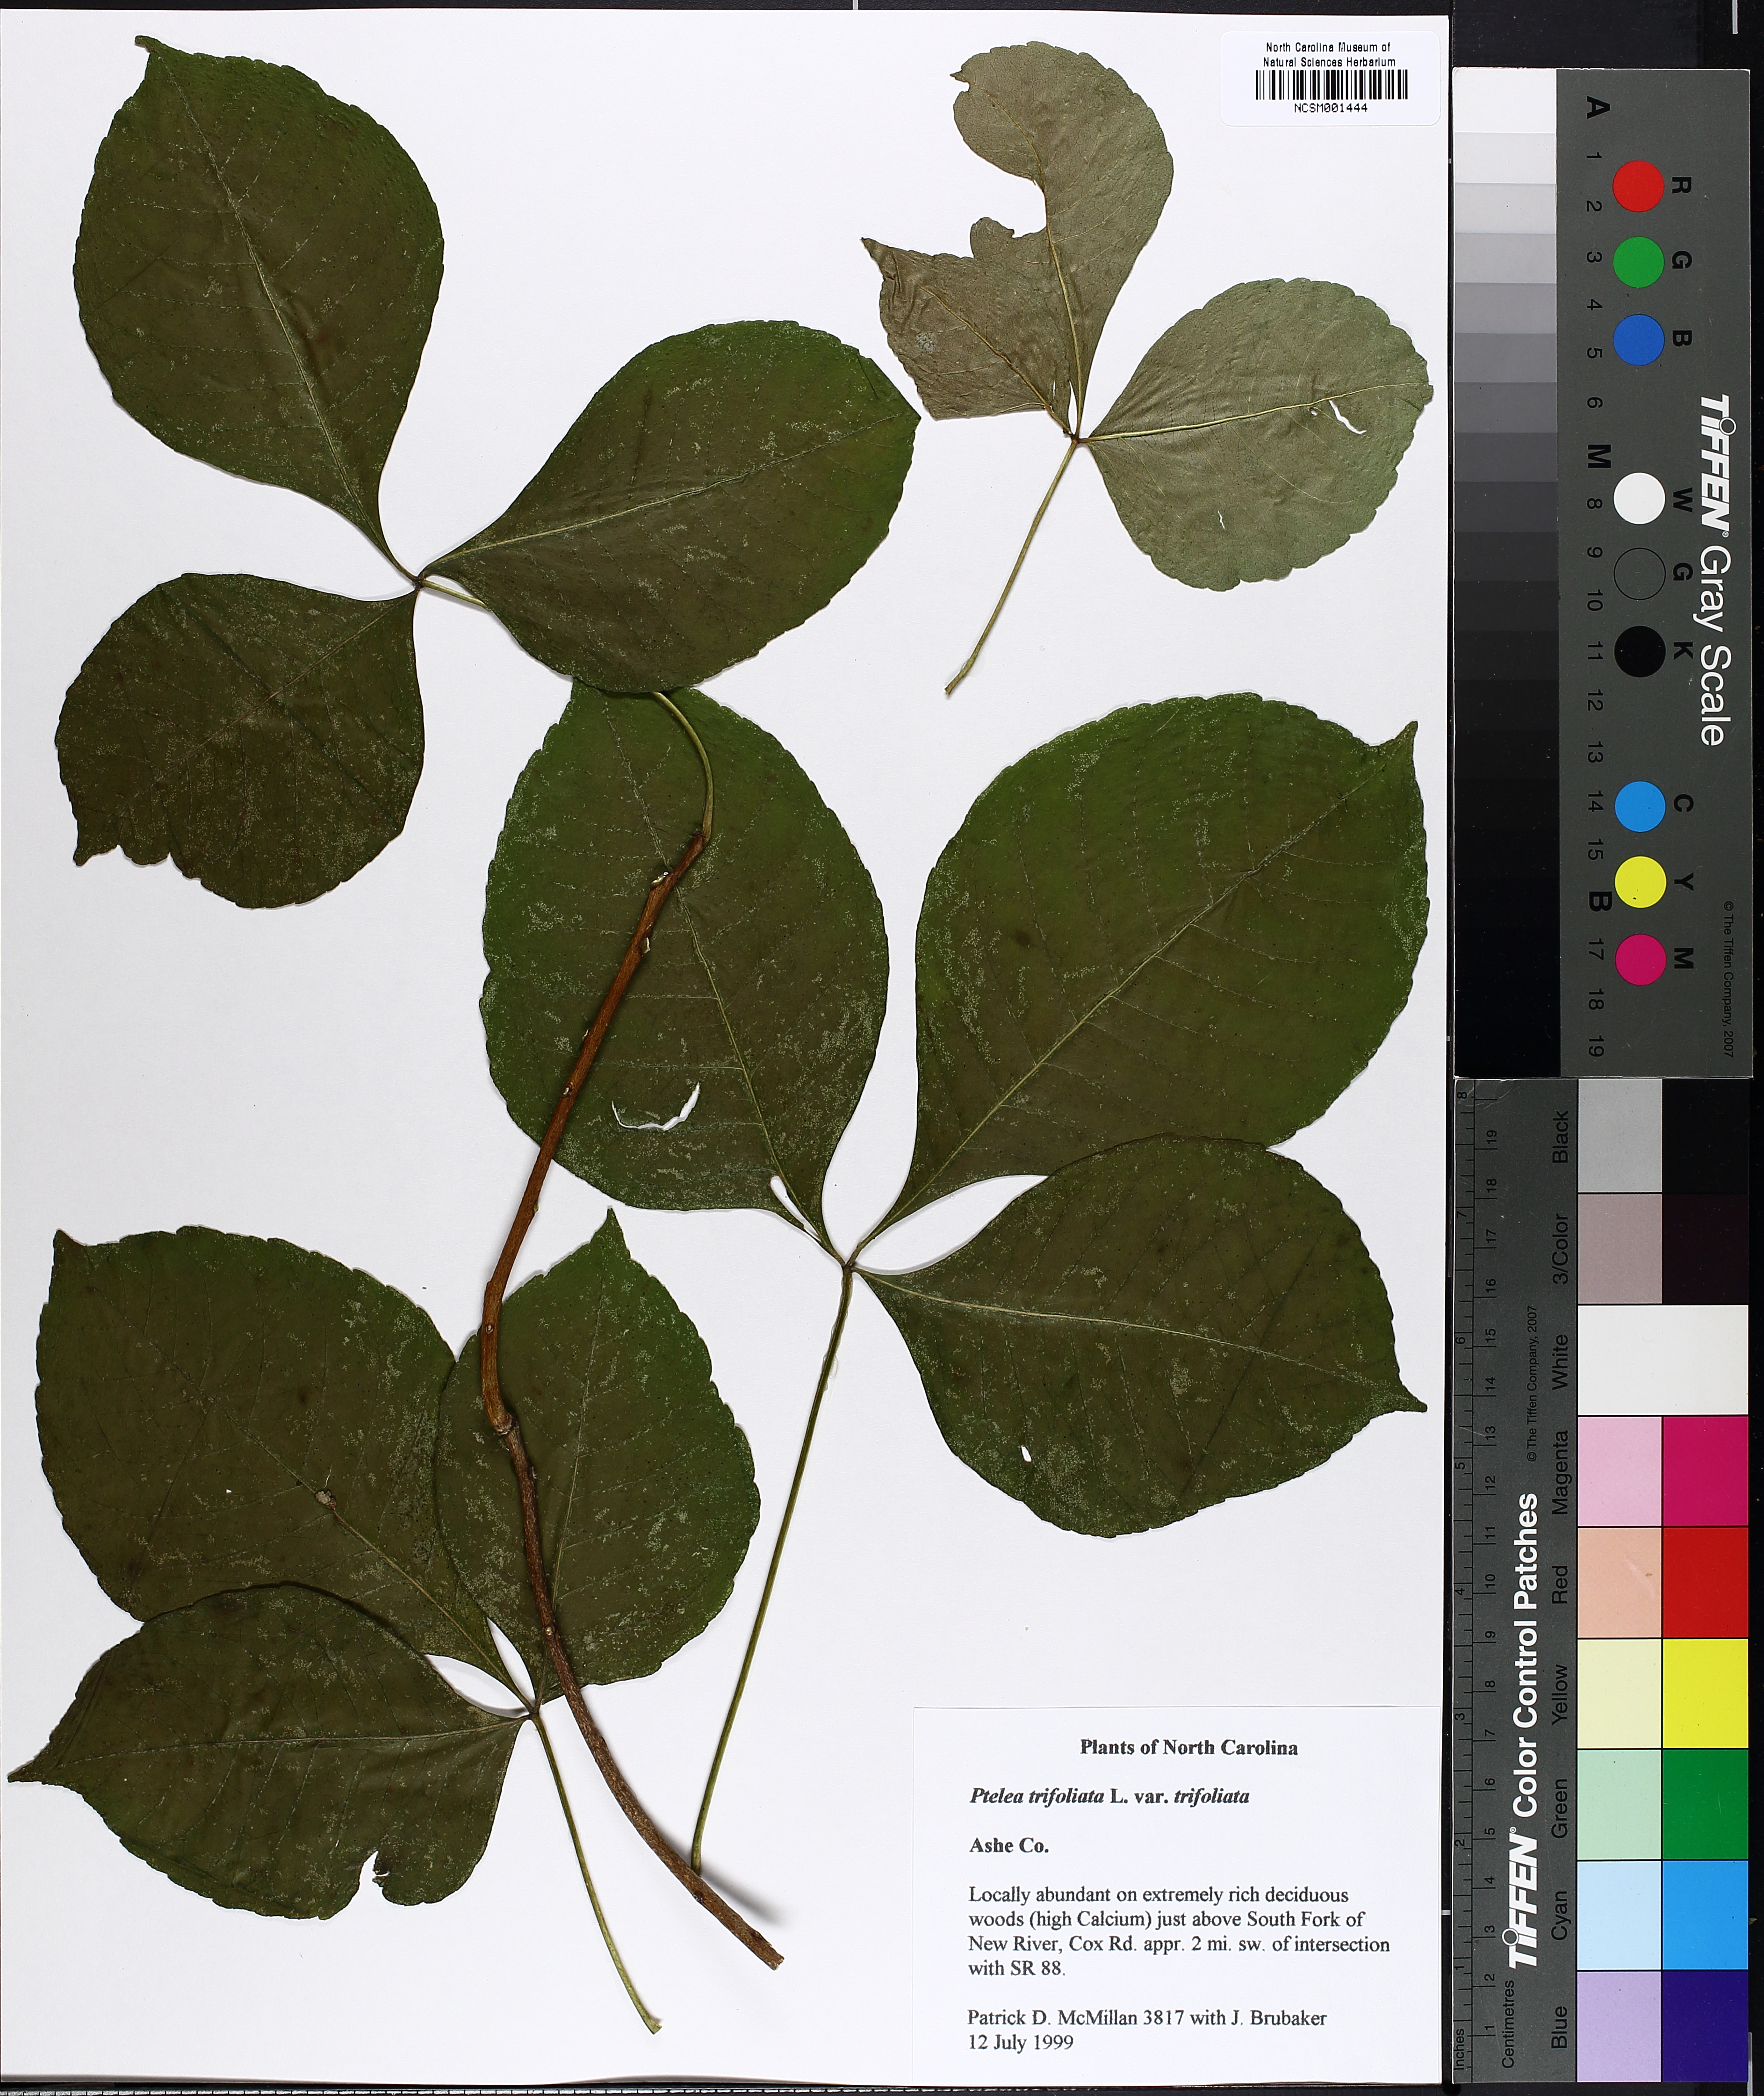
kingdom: Plantae
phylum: Tracheophyta
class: Magnoliopsida
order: Sapindales
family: Rutaceae
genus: Ptelea
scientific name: Ptelea trifoliata
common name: Common hop-tree
